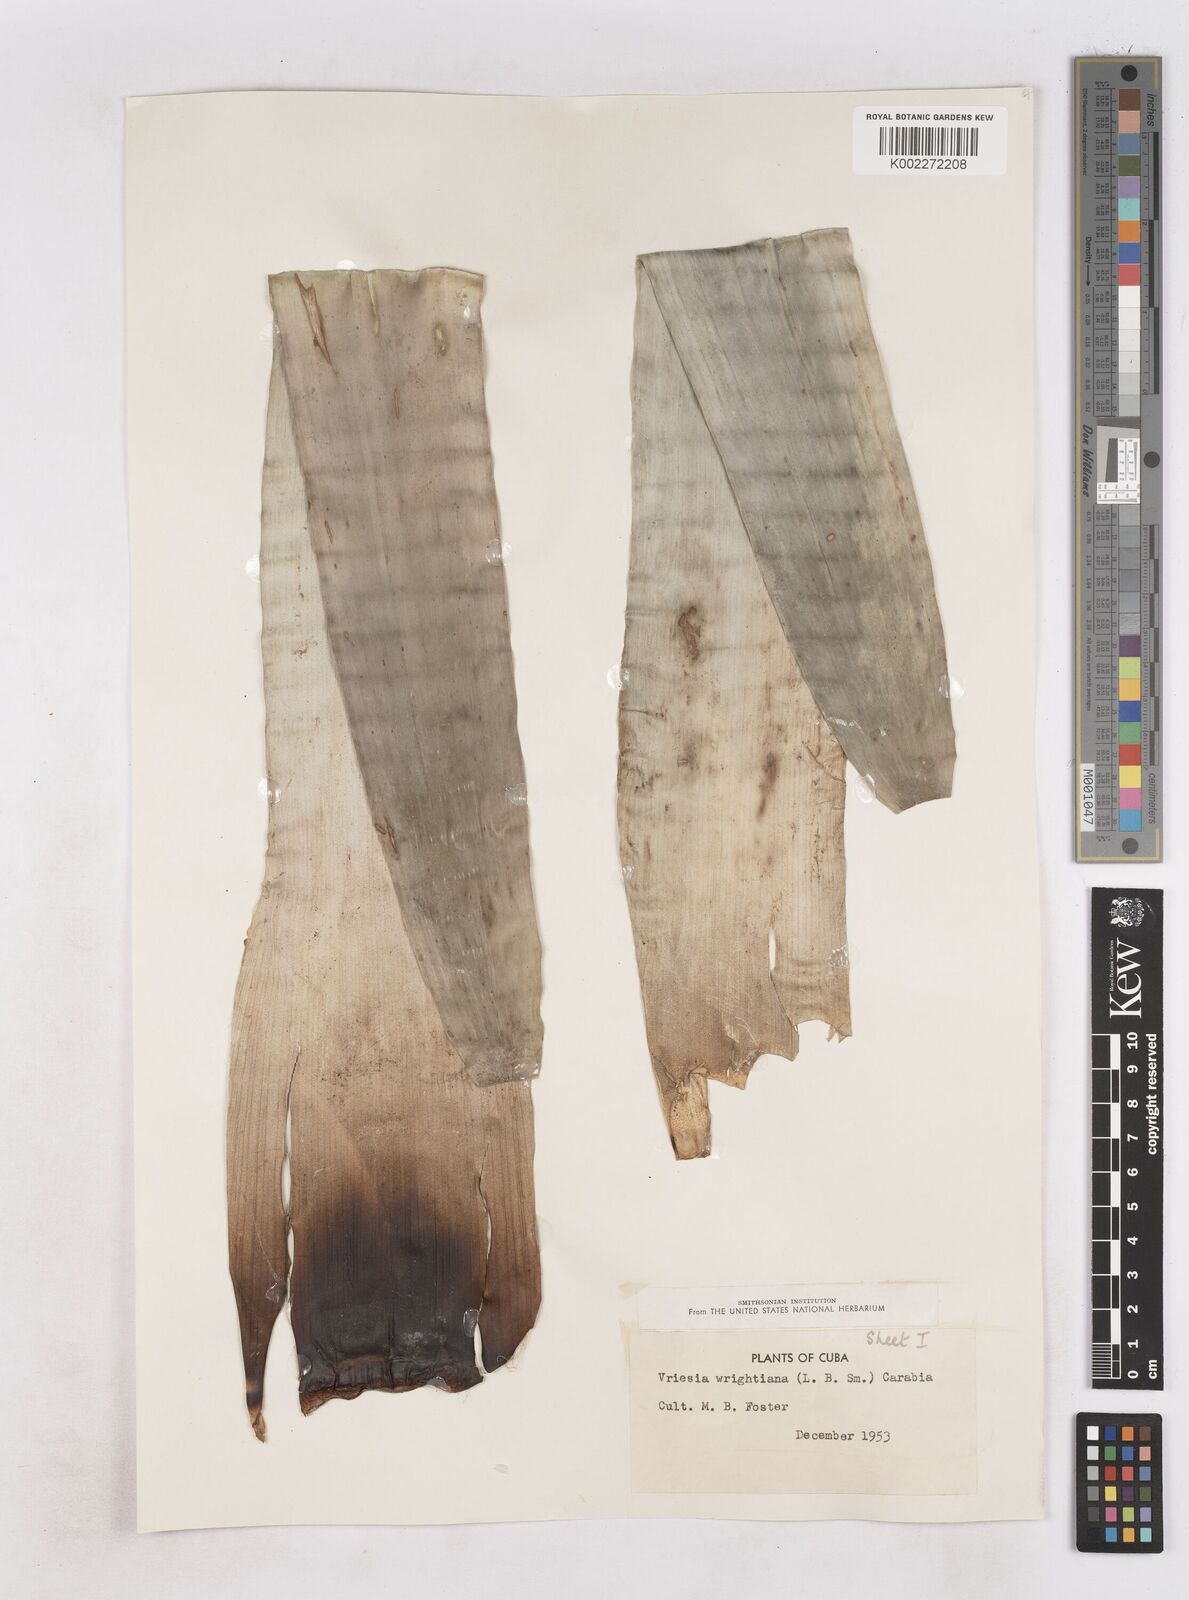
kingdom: Plantae
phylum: Tracheophyta
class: Liliopsida
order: Poales
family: Bromeliaceae
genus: Vriesea
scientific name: Vriesea
